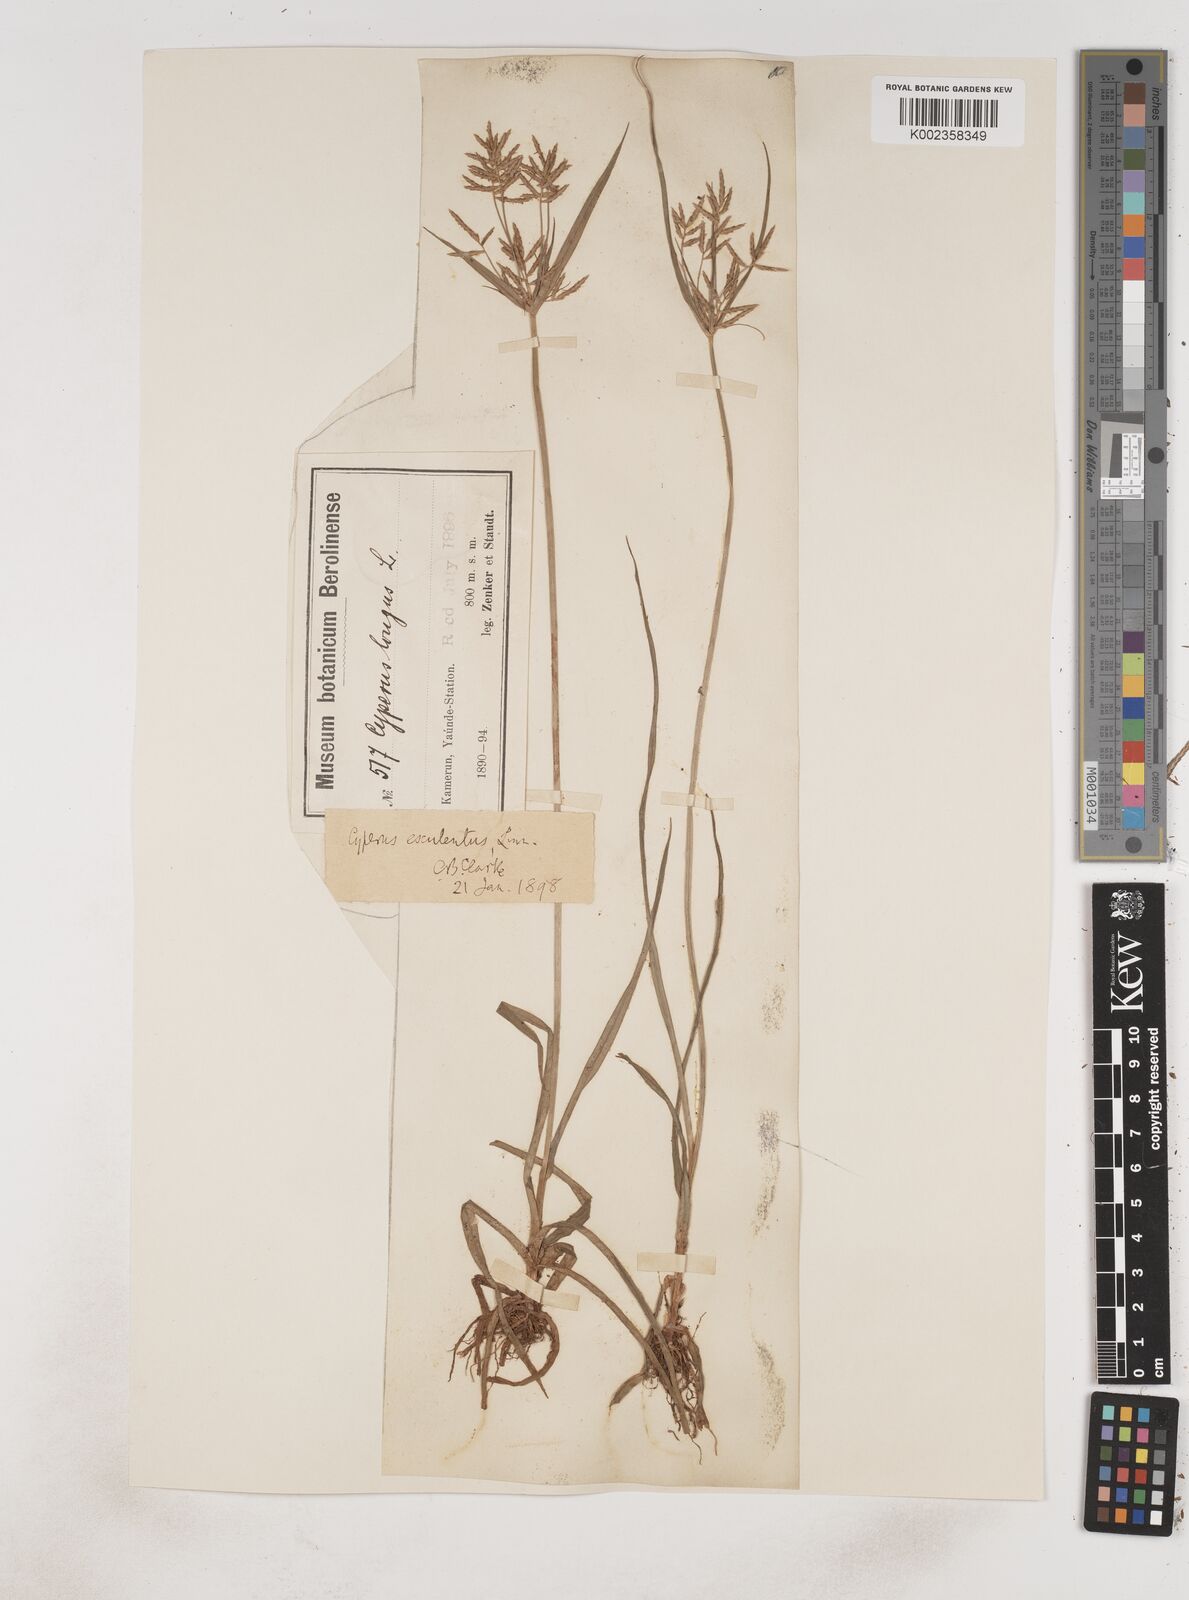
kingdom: Plantae
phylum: Tracheophyta
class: Liliopsida
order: Poales
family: Cyperaceae
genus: Cyperus
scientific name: Cyperus esculentus
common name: Yellow nutsedge
